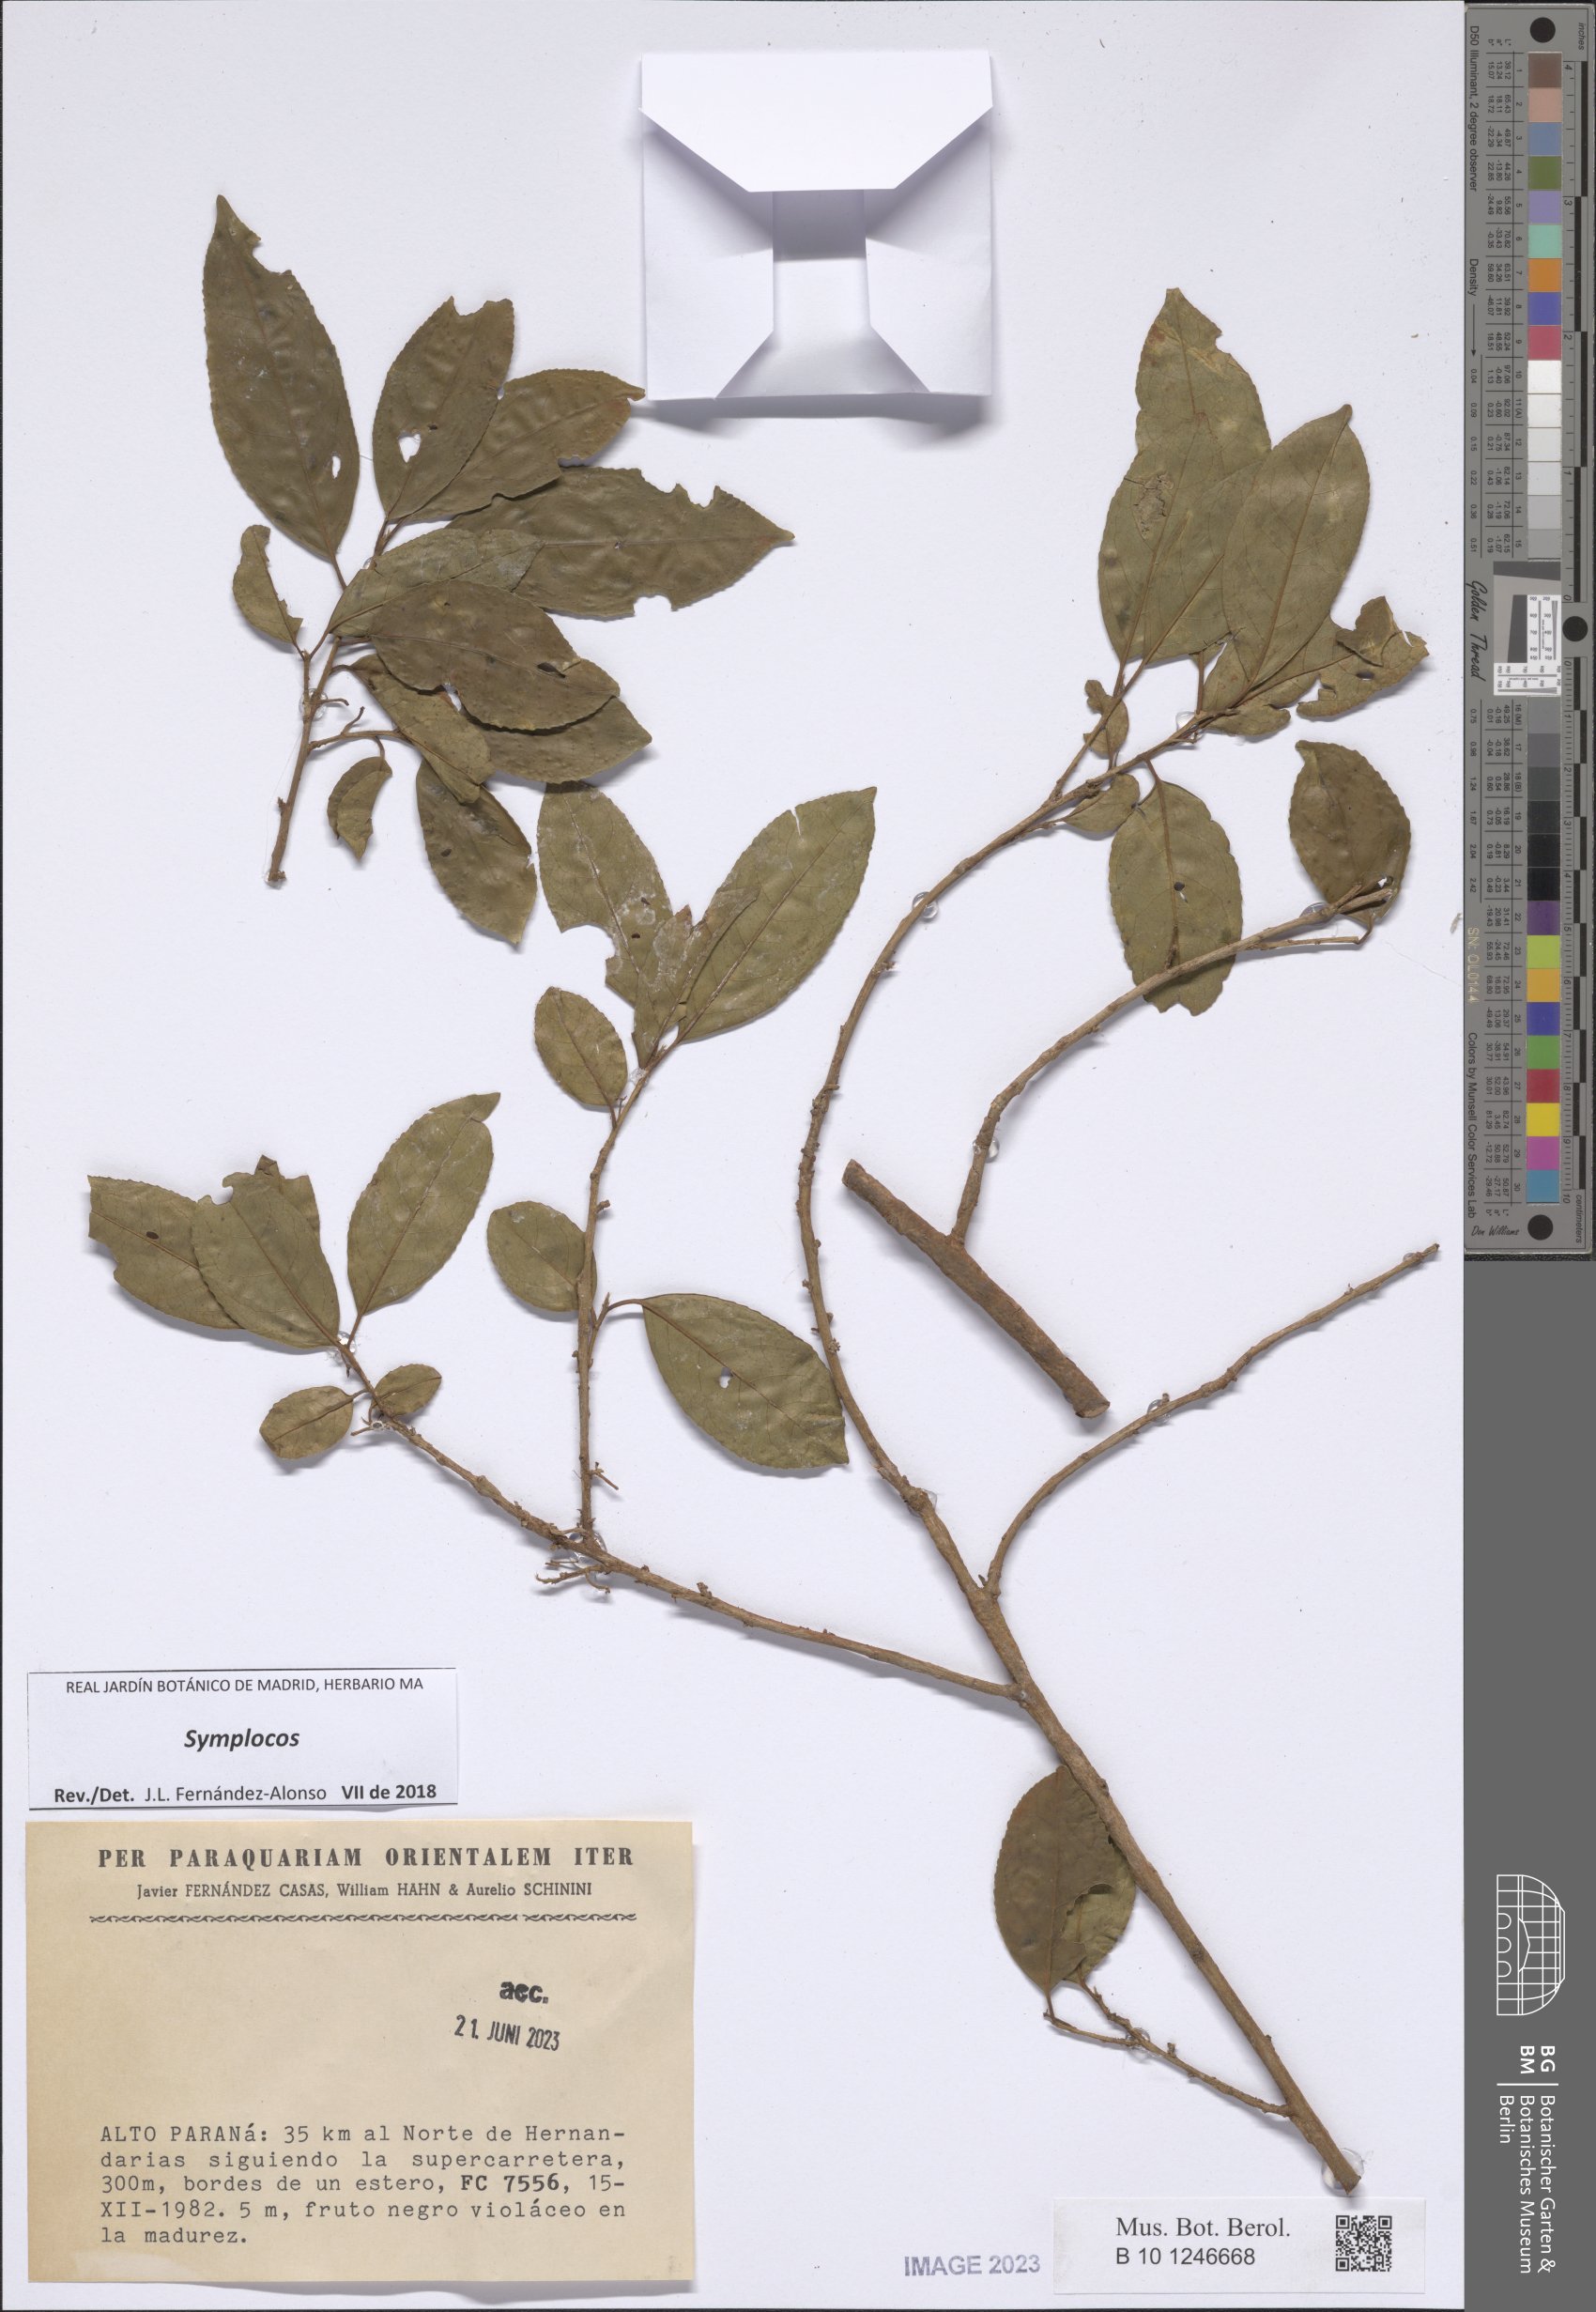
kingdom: Plantae
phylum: Tracheophyta
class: Magnoliopsida
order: Ericales
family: Symplocaceae
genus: Symplocos
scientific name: Symplocos
